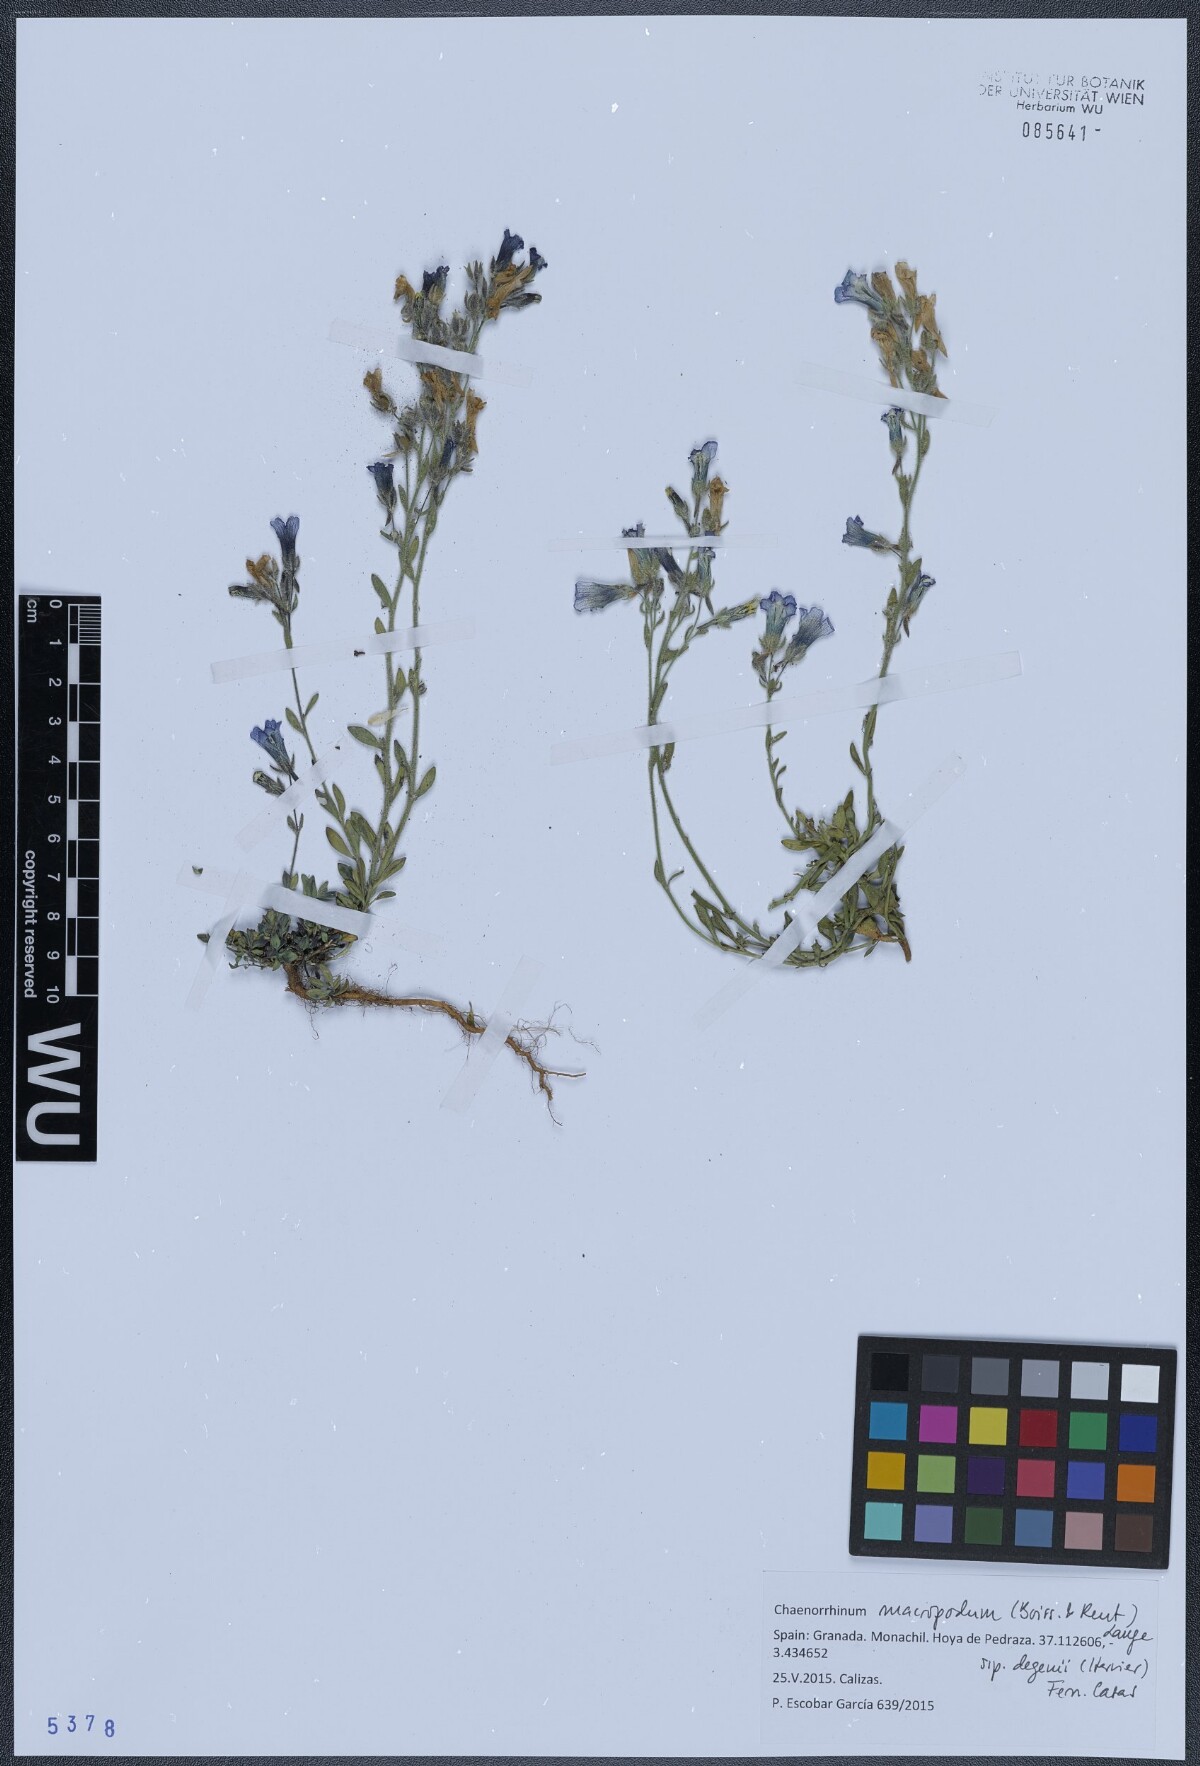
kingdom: Plantae
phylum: Tracheophyta
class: Magnoliopsida
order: Lamiales
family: Plantaginaceae
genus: Chaenorhinum
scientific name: Chaenorhinum macropodum
